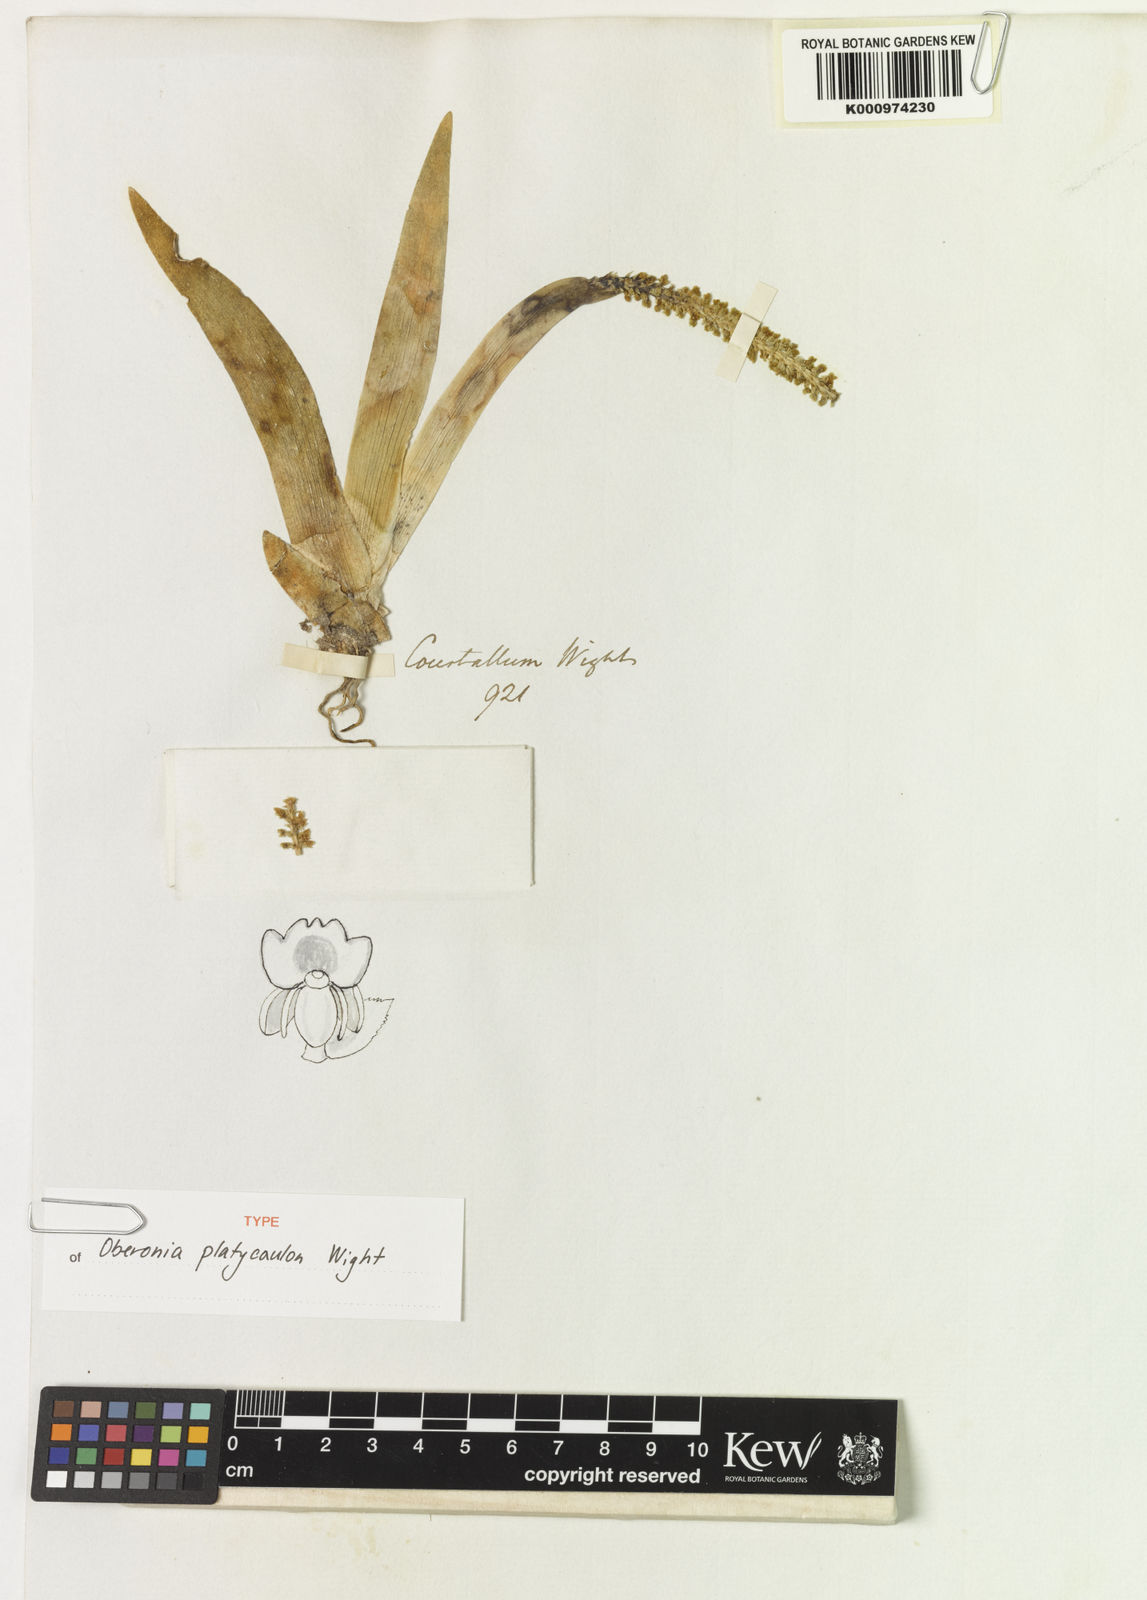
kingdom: Plantae
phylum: Tracheophyta
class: Liliopsida
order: Asparagales
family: Orchidaceae
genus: Oberonia
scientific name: Oberonia platycaulon
